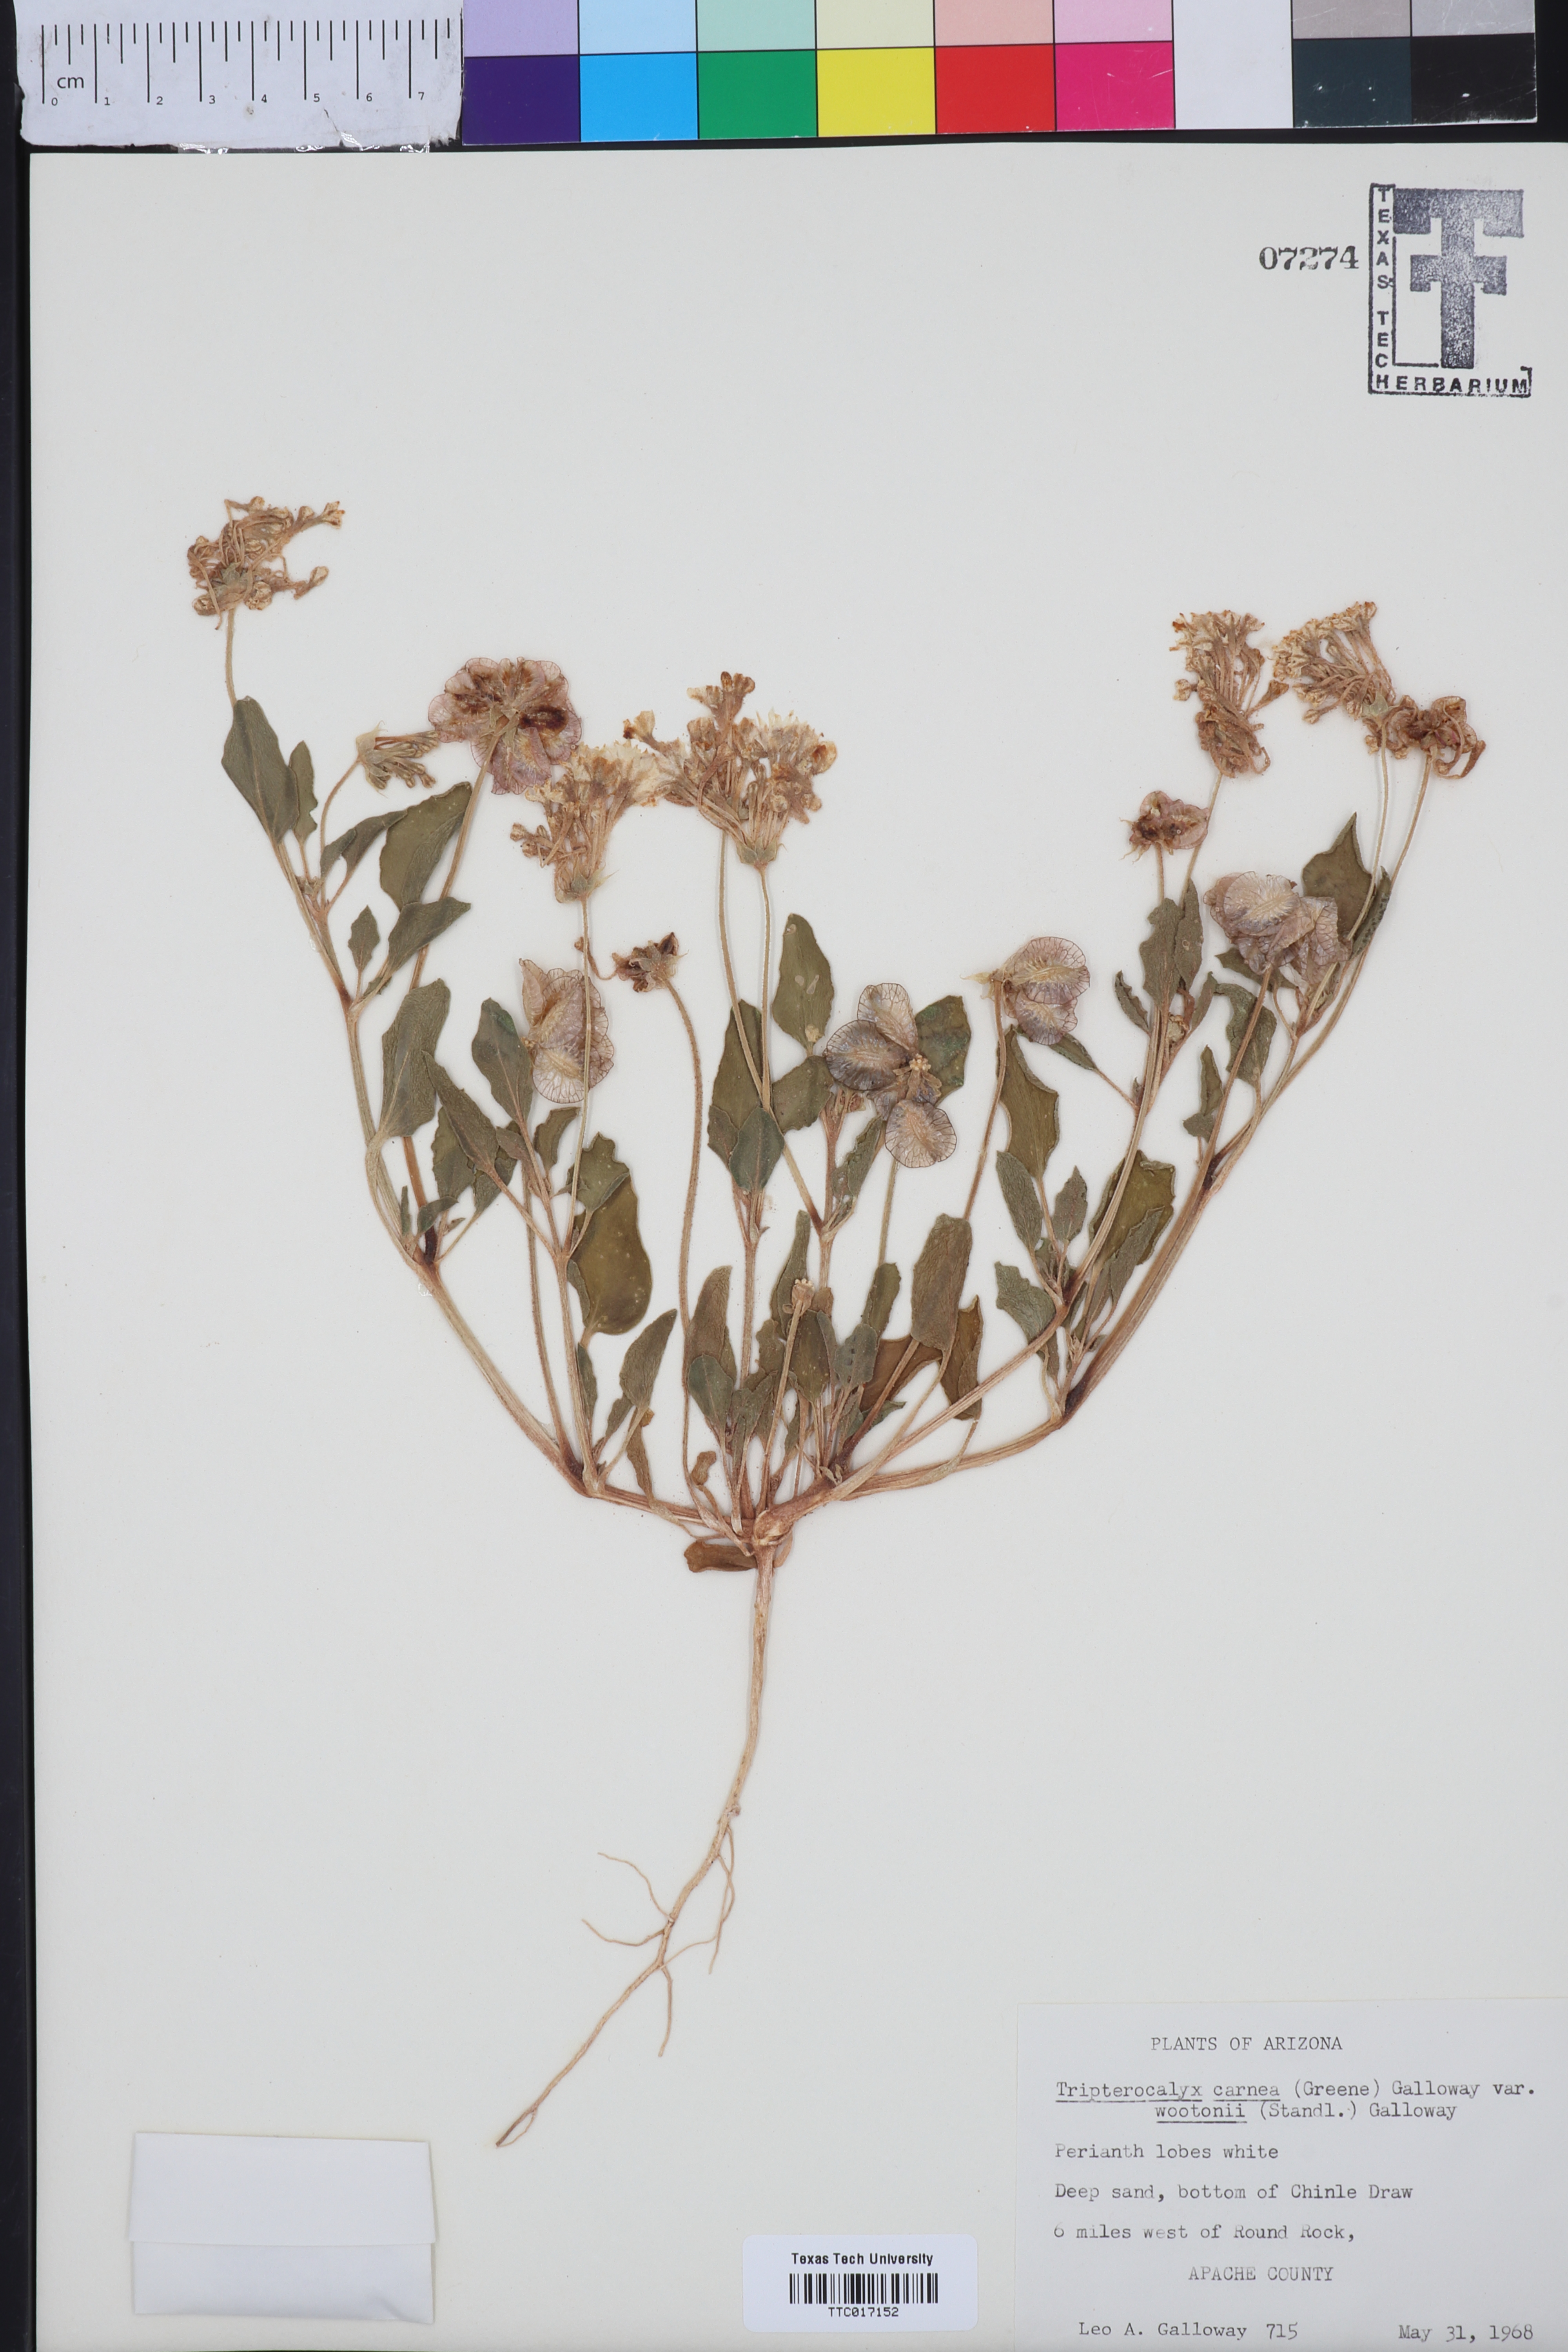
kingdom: Plantae
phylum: Tracheophyta
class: Magnoliopsida
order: Caryophyllales
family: Nyctaginaceae
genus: Tripterocalyx
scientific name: Tripterocalyx wootonii
